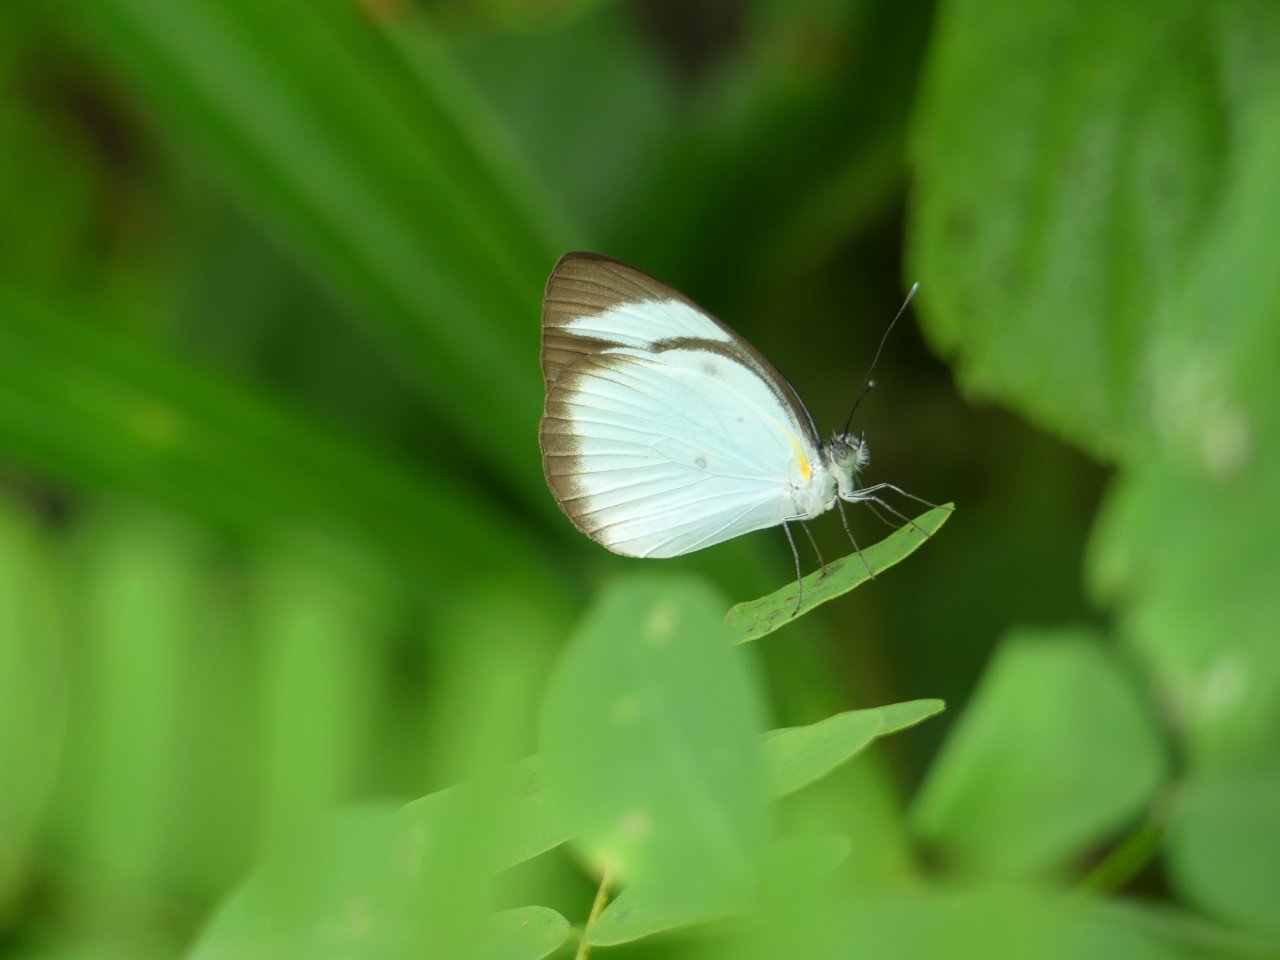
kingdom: Animalia
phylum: Arthropoda
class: Insecta
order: Lepidoptera
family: Pieridae
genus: Itaballia
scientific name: Itaballia demophile
